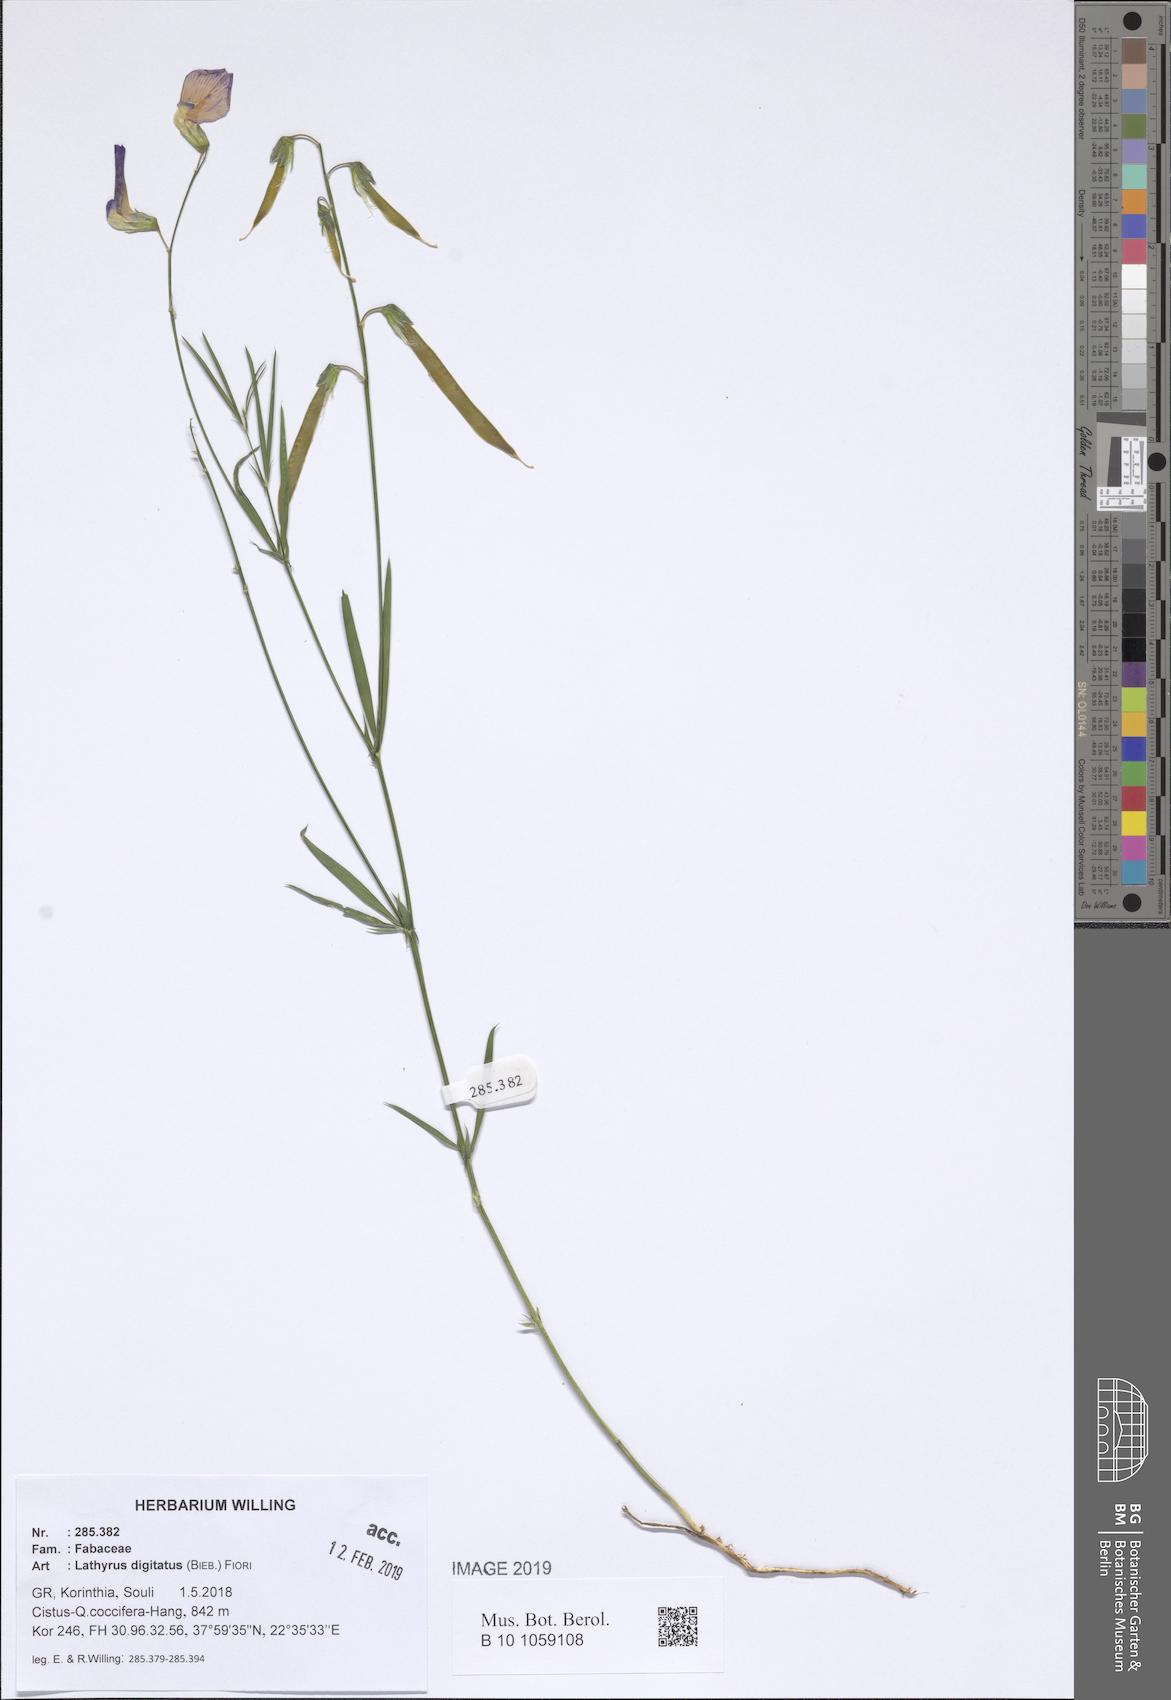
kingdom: Plantae
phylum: Tracheophyta
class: Magnoliopsida
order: Fabales
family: Fabaceae
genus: Lathyrus
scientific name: Lathyrus digitatus
